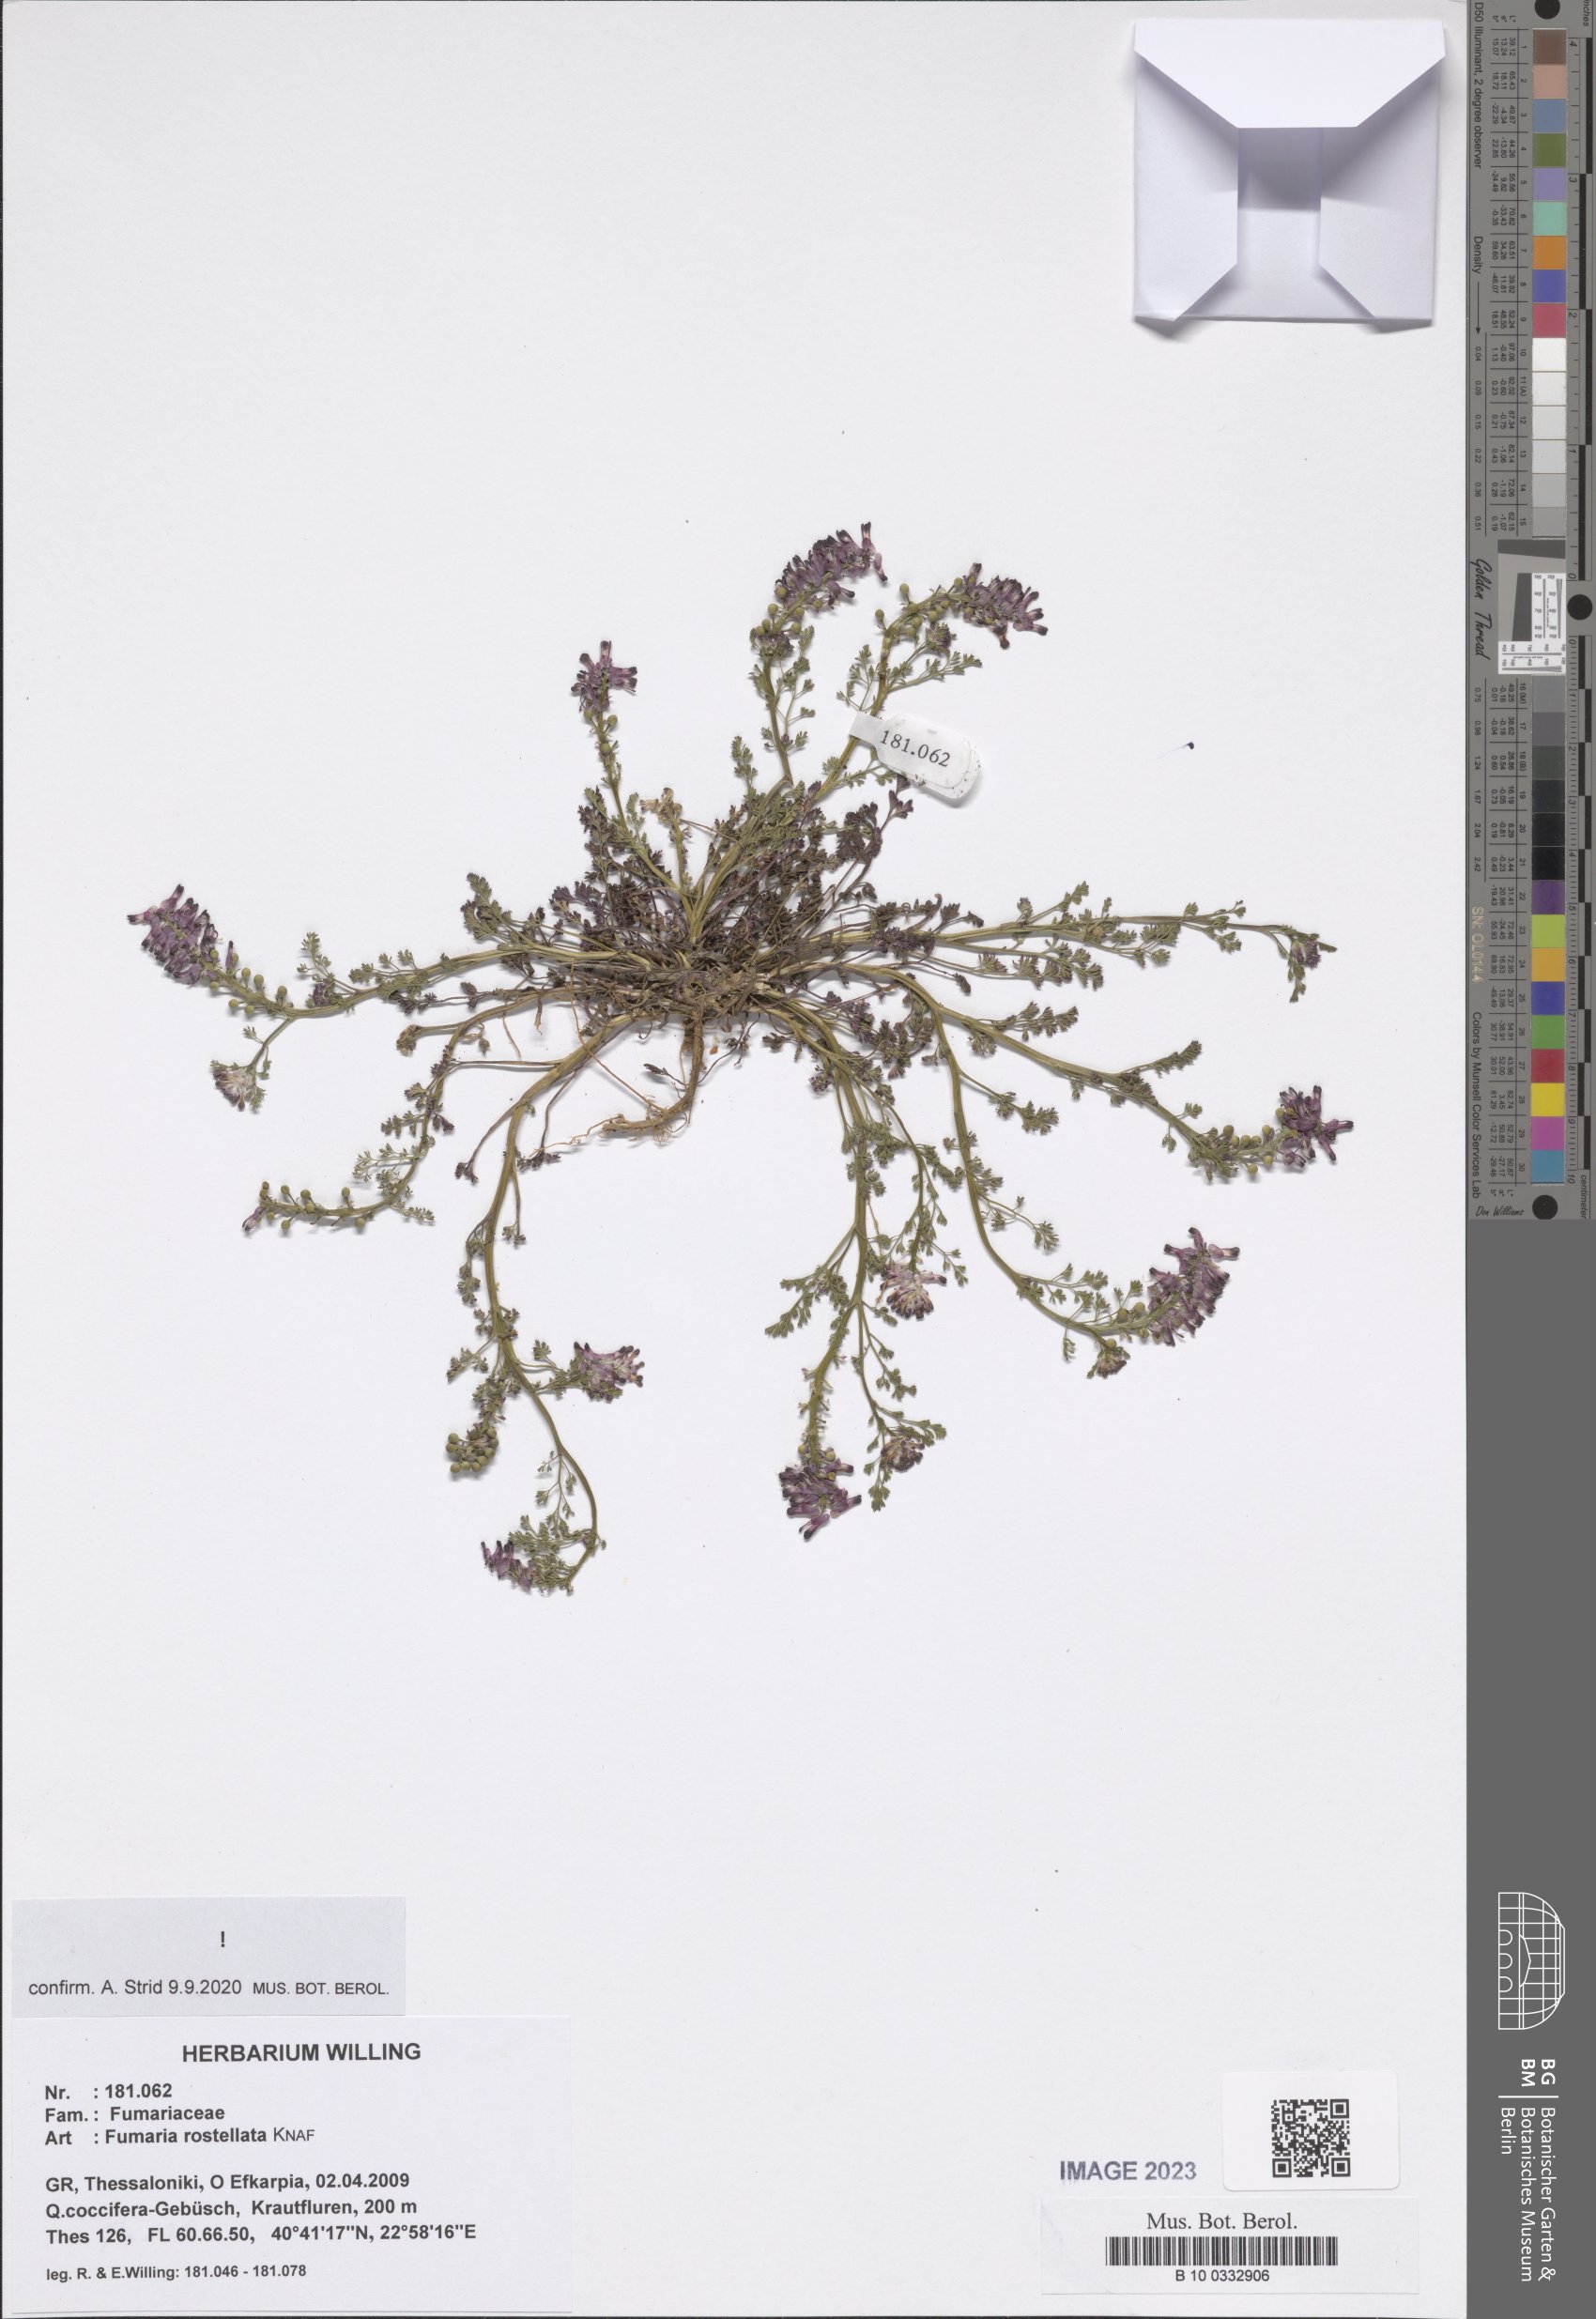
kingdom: Plantae
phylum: Tracheophyta
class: Magnoliopsida
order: Ranunculales
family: Papaveraceae
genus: Fumaria
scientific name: Fumaria rostellata
